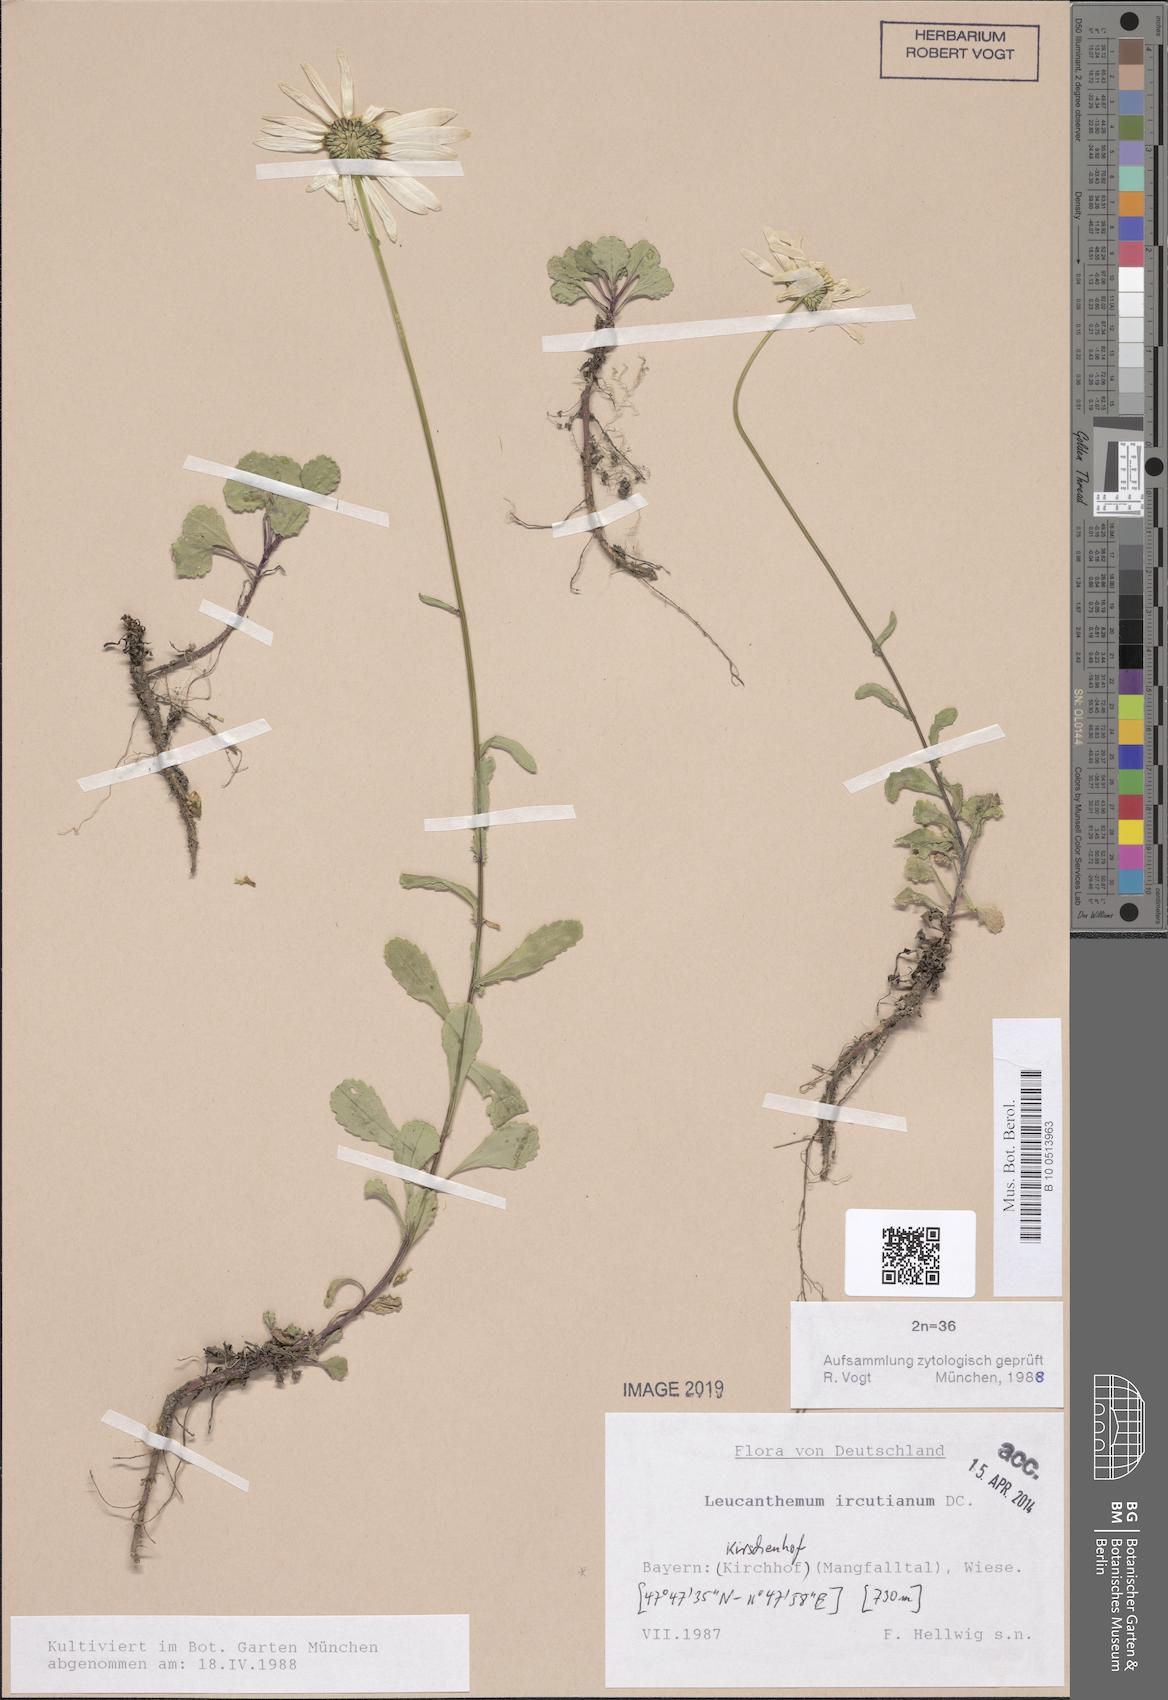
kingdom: Plantae
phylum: Tracheophyta
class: Magnoliopsida
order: Asterales
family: Asteraceae
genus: Leucanthemum
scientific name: Leucanthemum ircutianum
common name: Daisy
